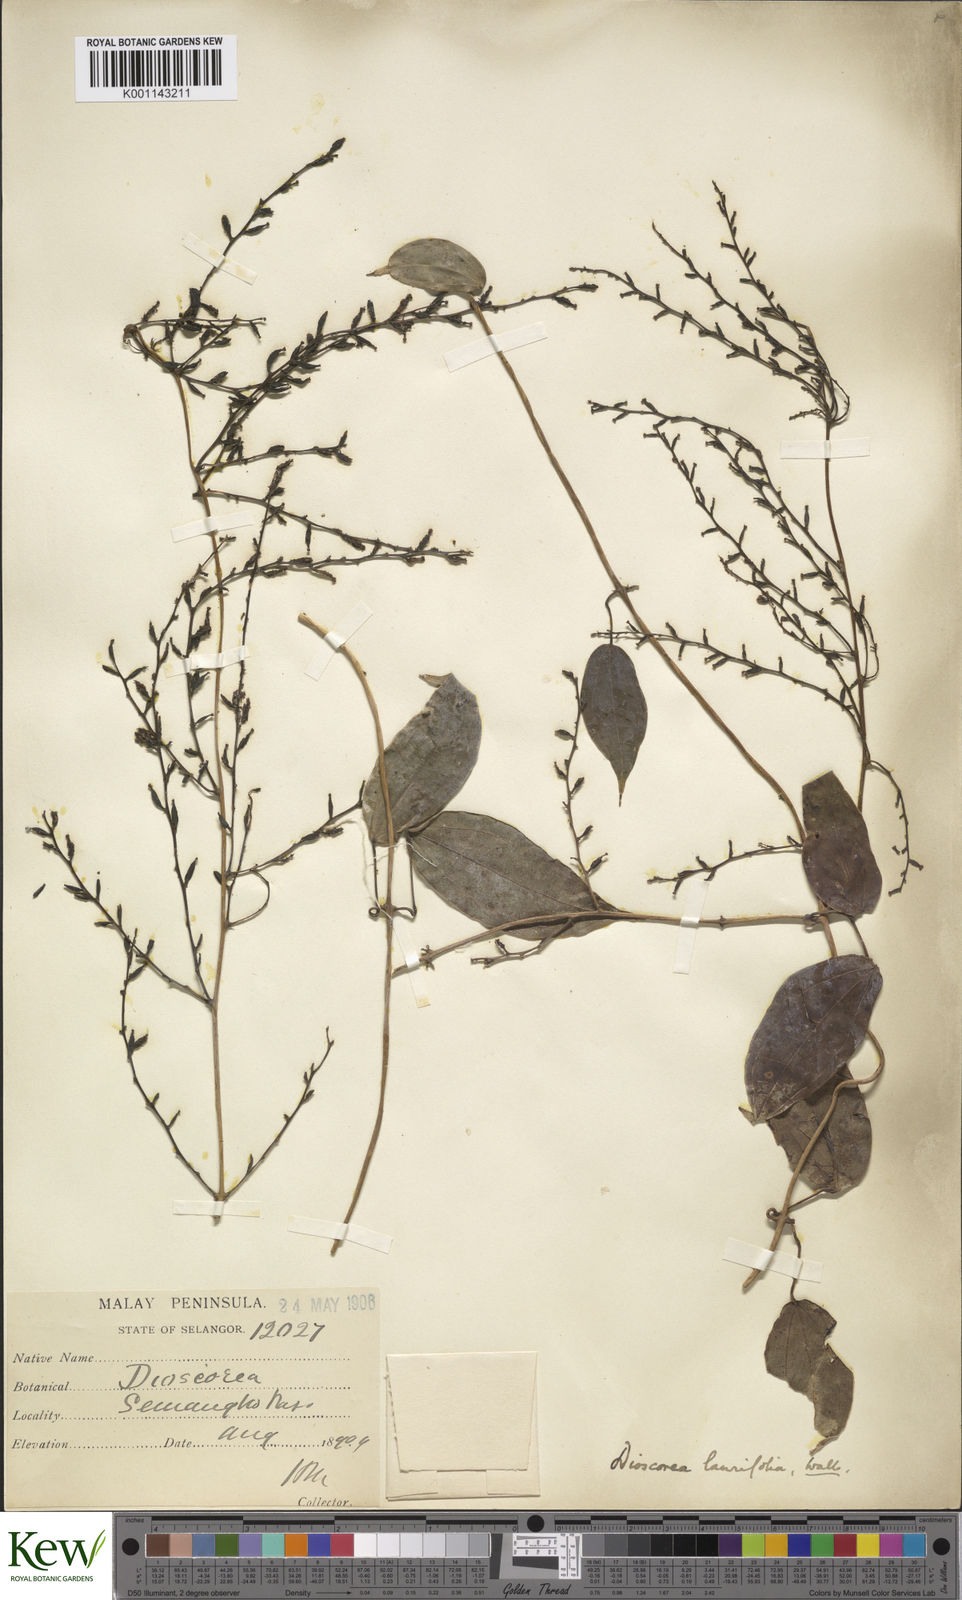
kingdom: Plantae
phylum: Tracheophyta
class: Liliopsida
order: Dioscoreales
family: Dioscoreaceae
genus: Dioscorea
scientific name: Dioscorea laurifolia
